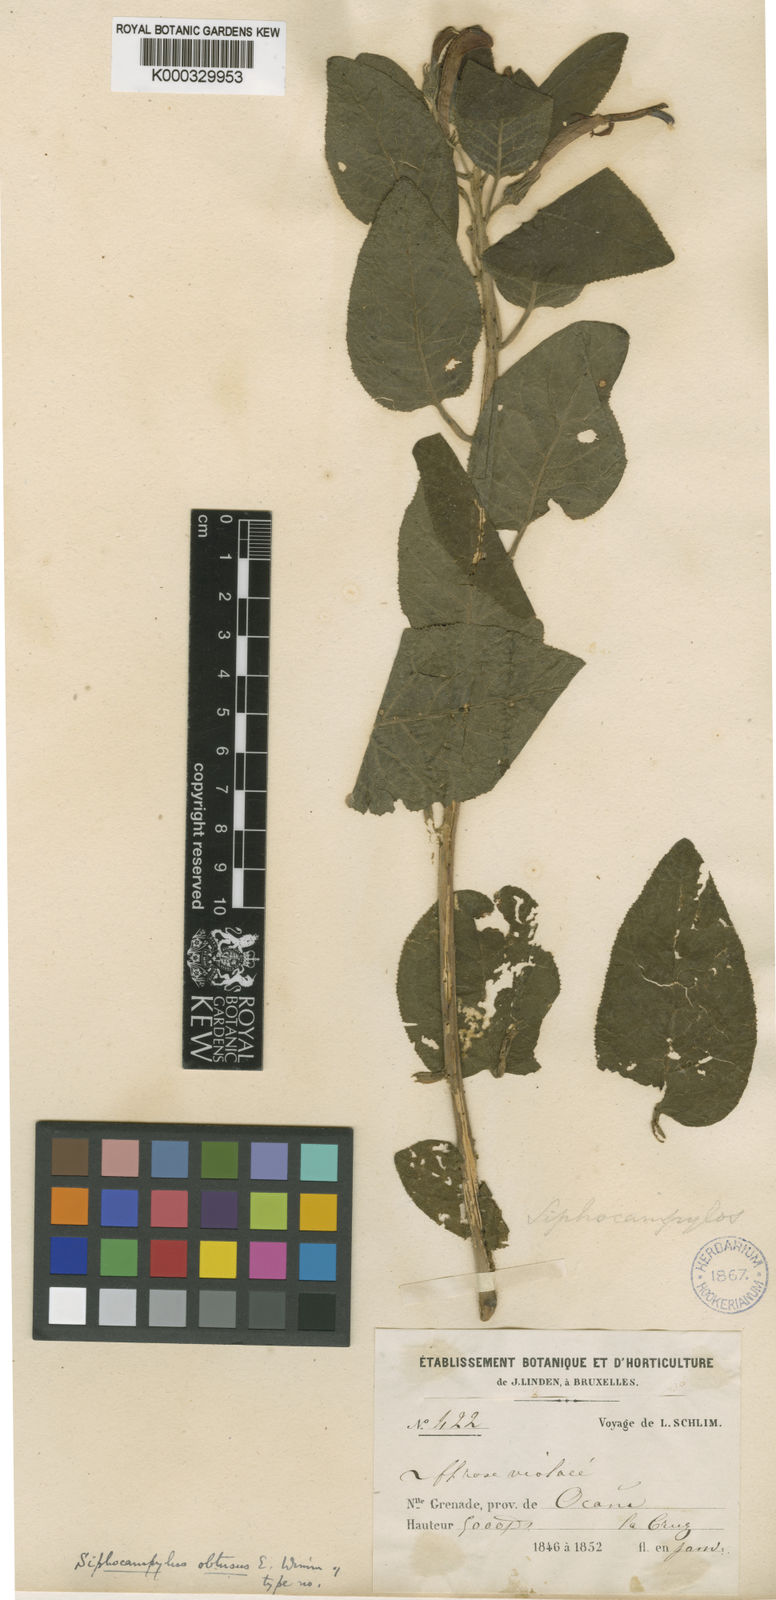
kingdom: Plantae
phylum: Tracheophyta
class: Magnoliopsida
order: Asterales
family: Campanulaceae
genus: Siphocampylus
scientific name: Siphocampylus obtusus
